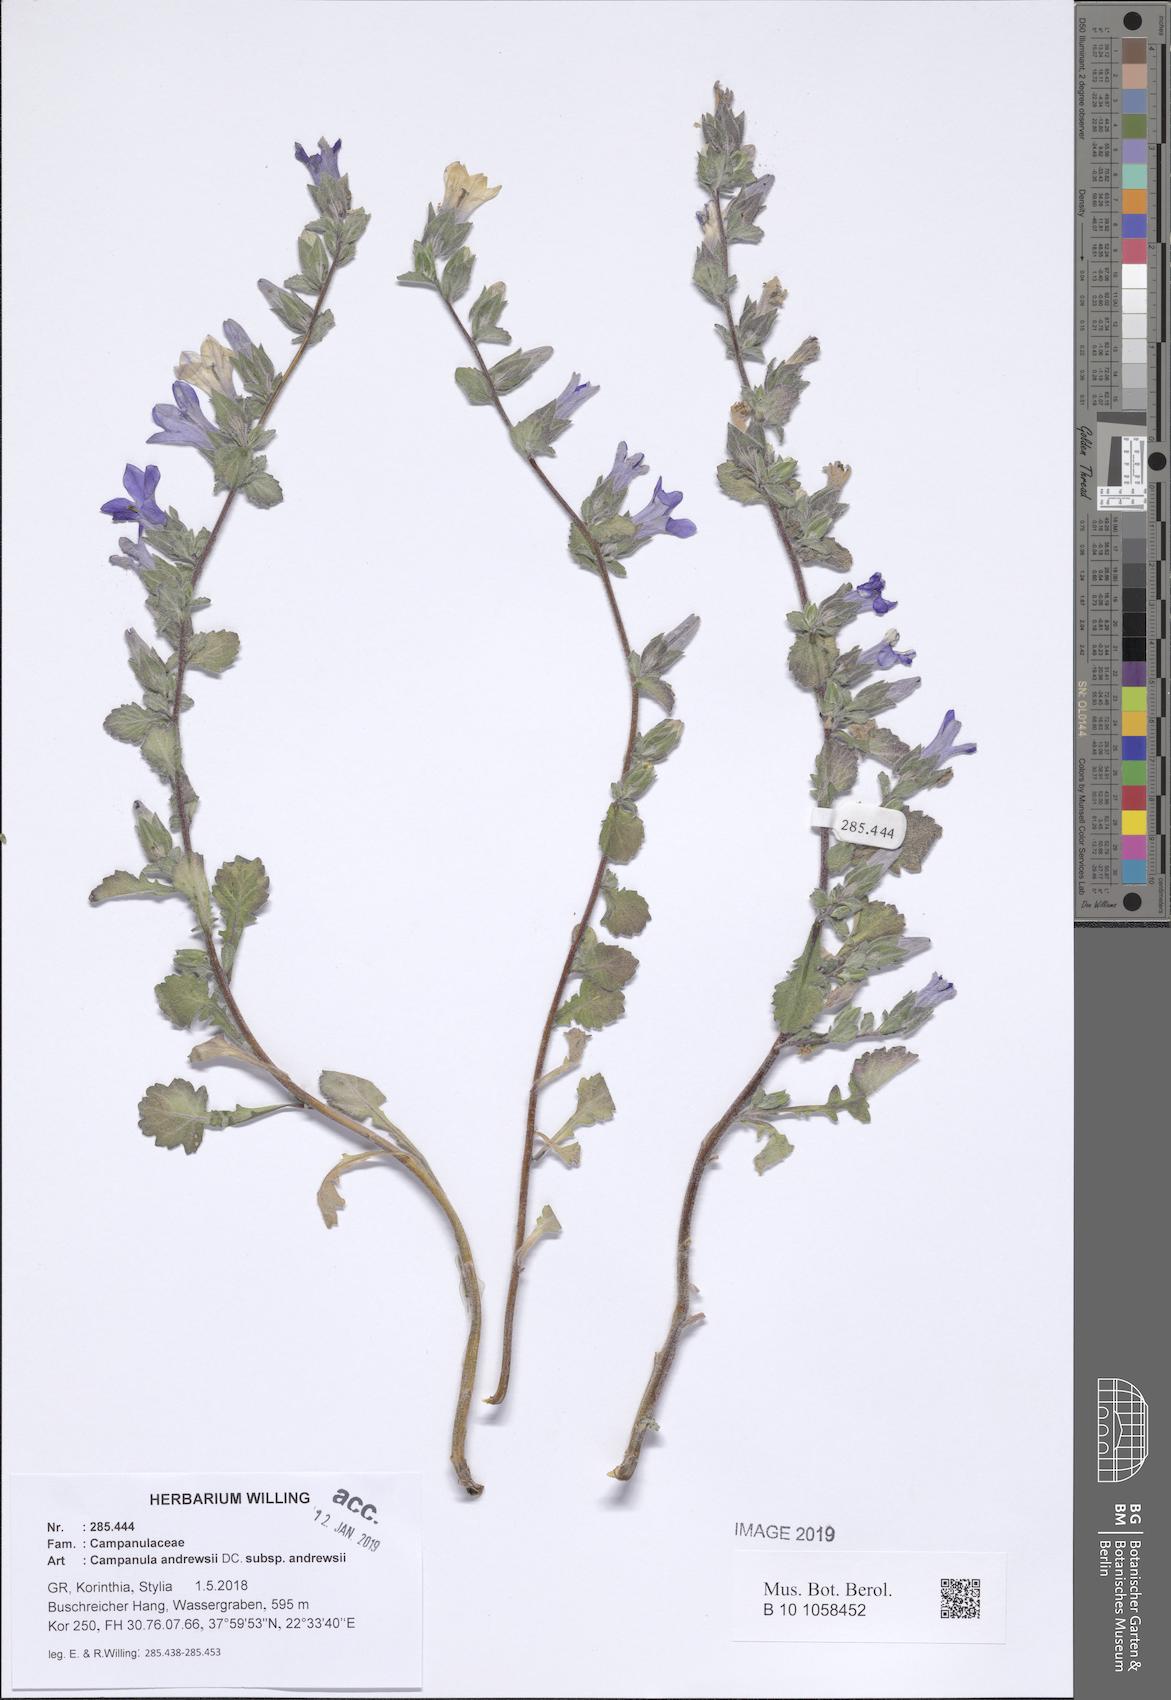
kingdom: Plantae
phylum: Tracheophyta
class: Magnoliopsida
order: Asterales
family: Campanulaceae
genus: Campanula
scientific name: Campanula andrewsii
